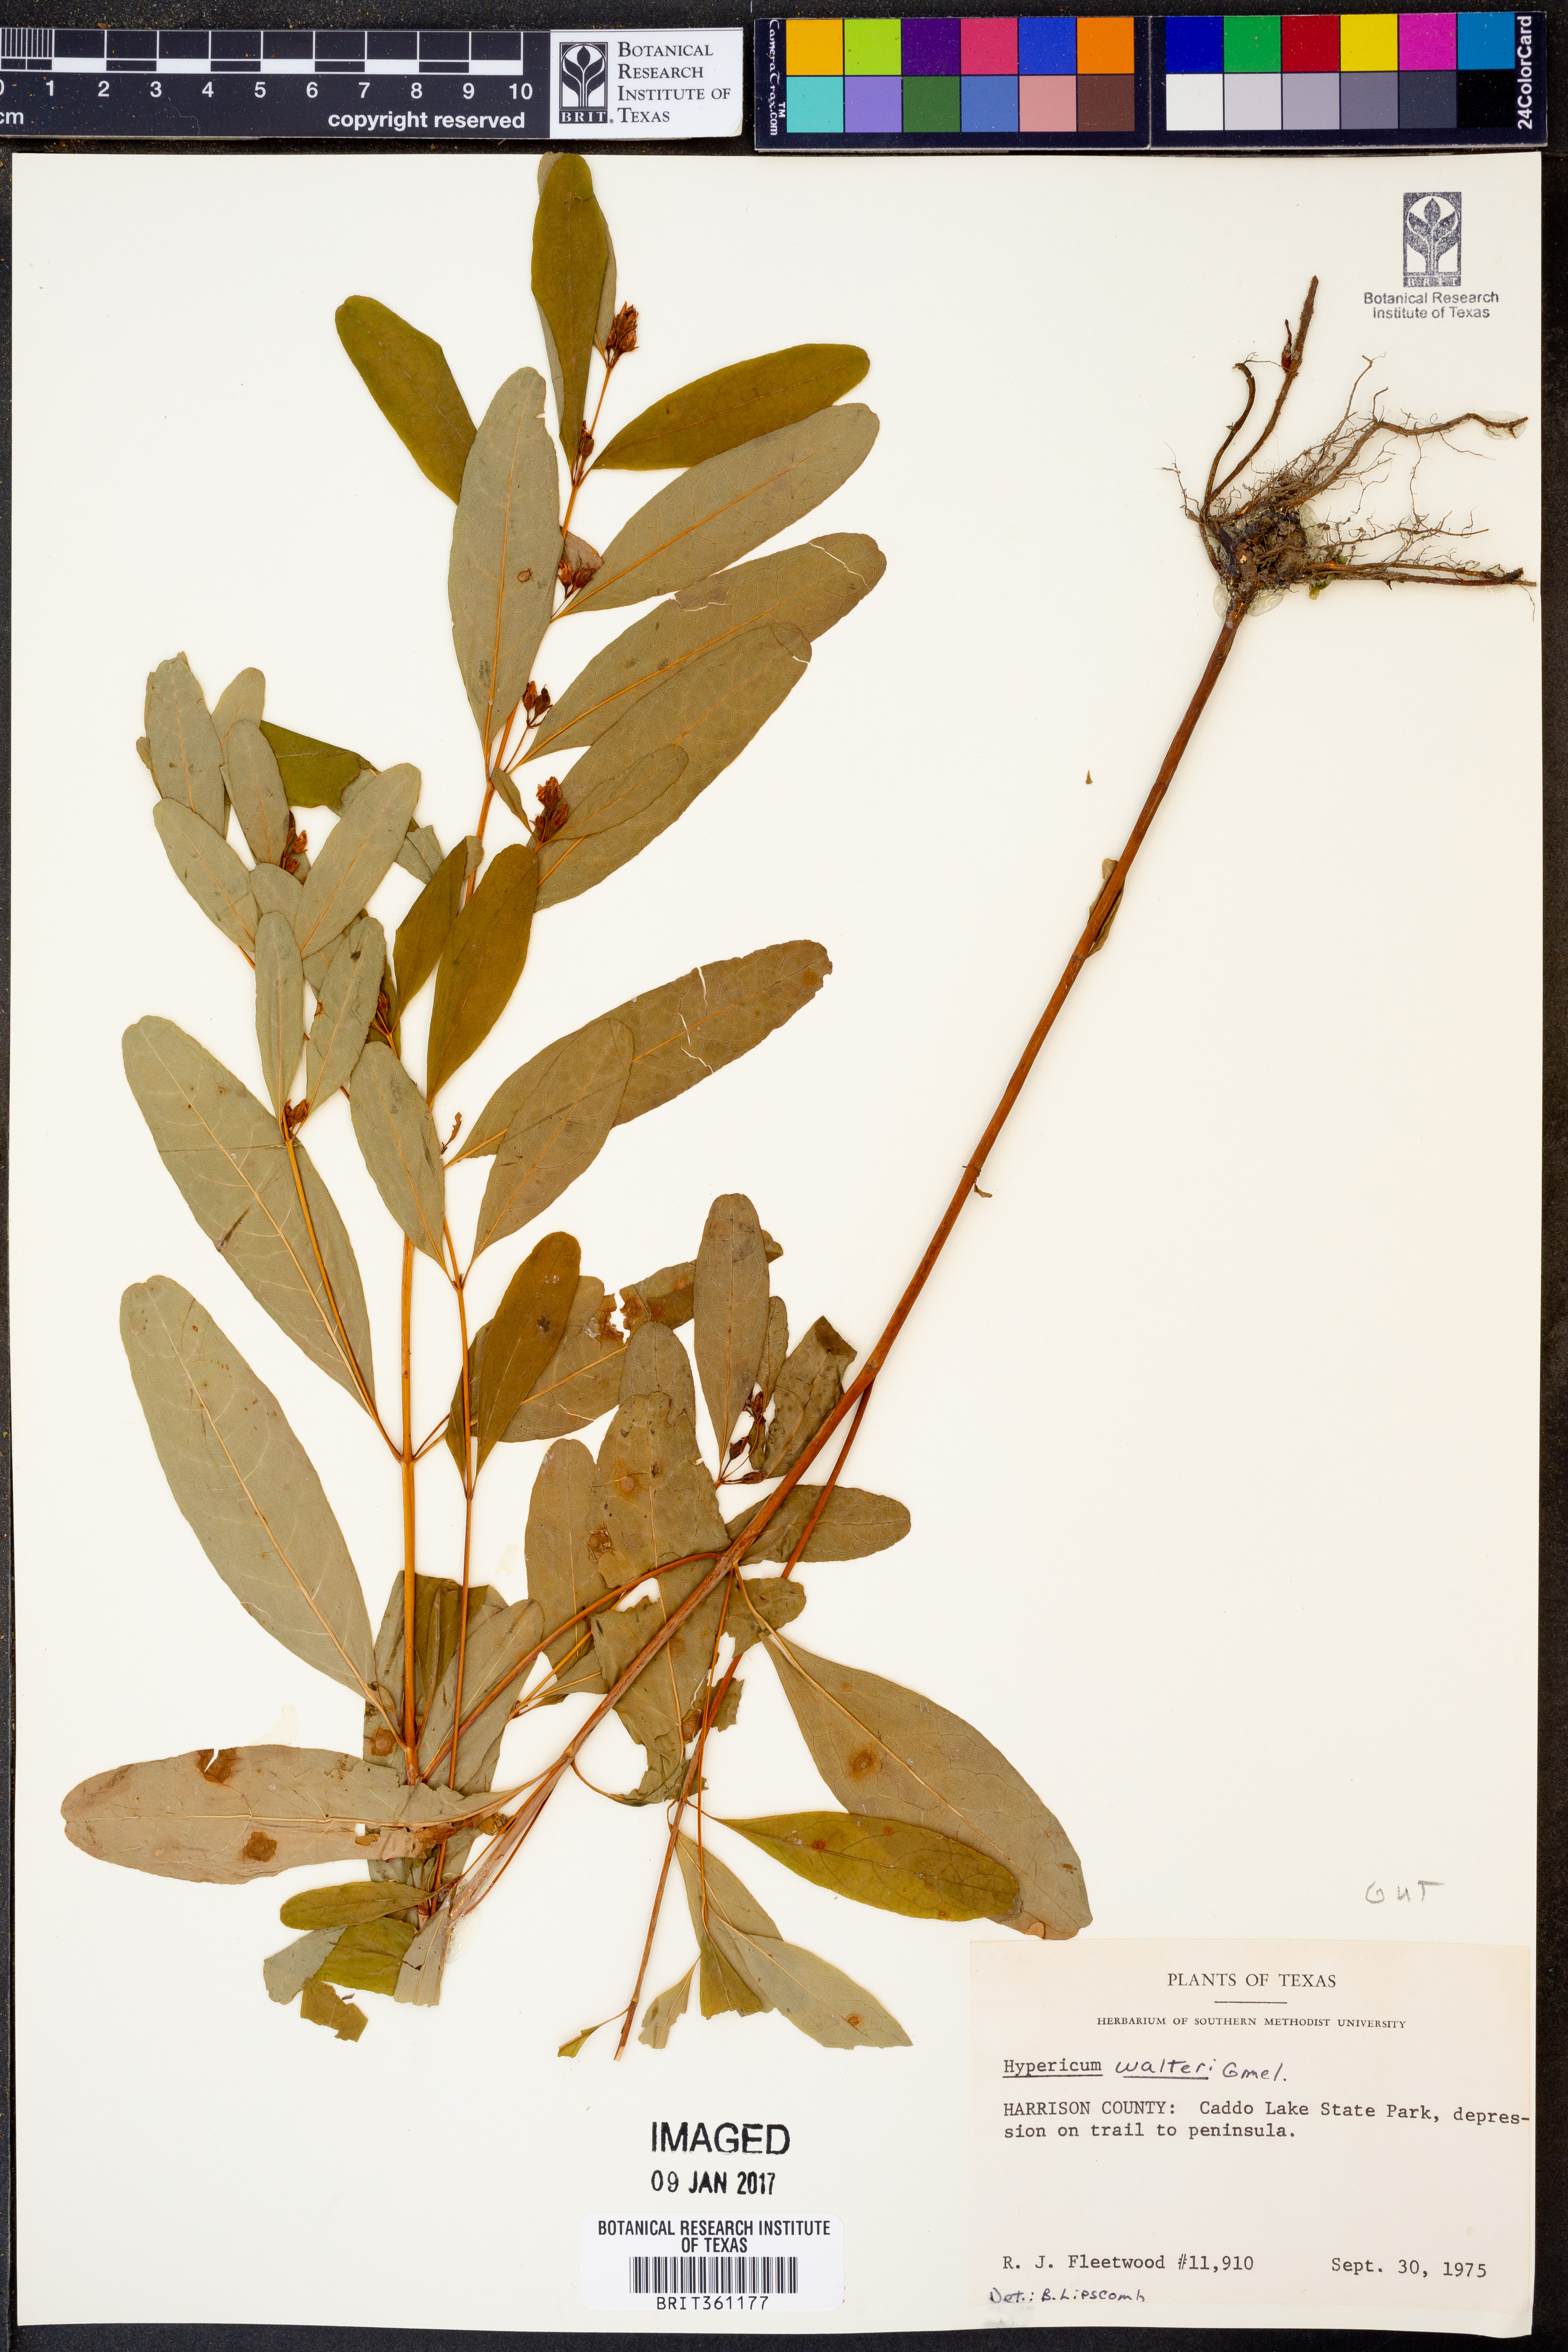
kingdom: Plantae
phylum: Tracheophyta
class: Magnoliopsida
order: Malpighiales
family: Hypericaceae
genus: Triadenum
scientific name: Triadenum walteri
